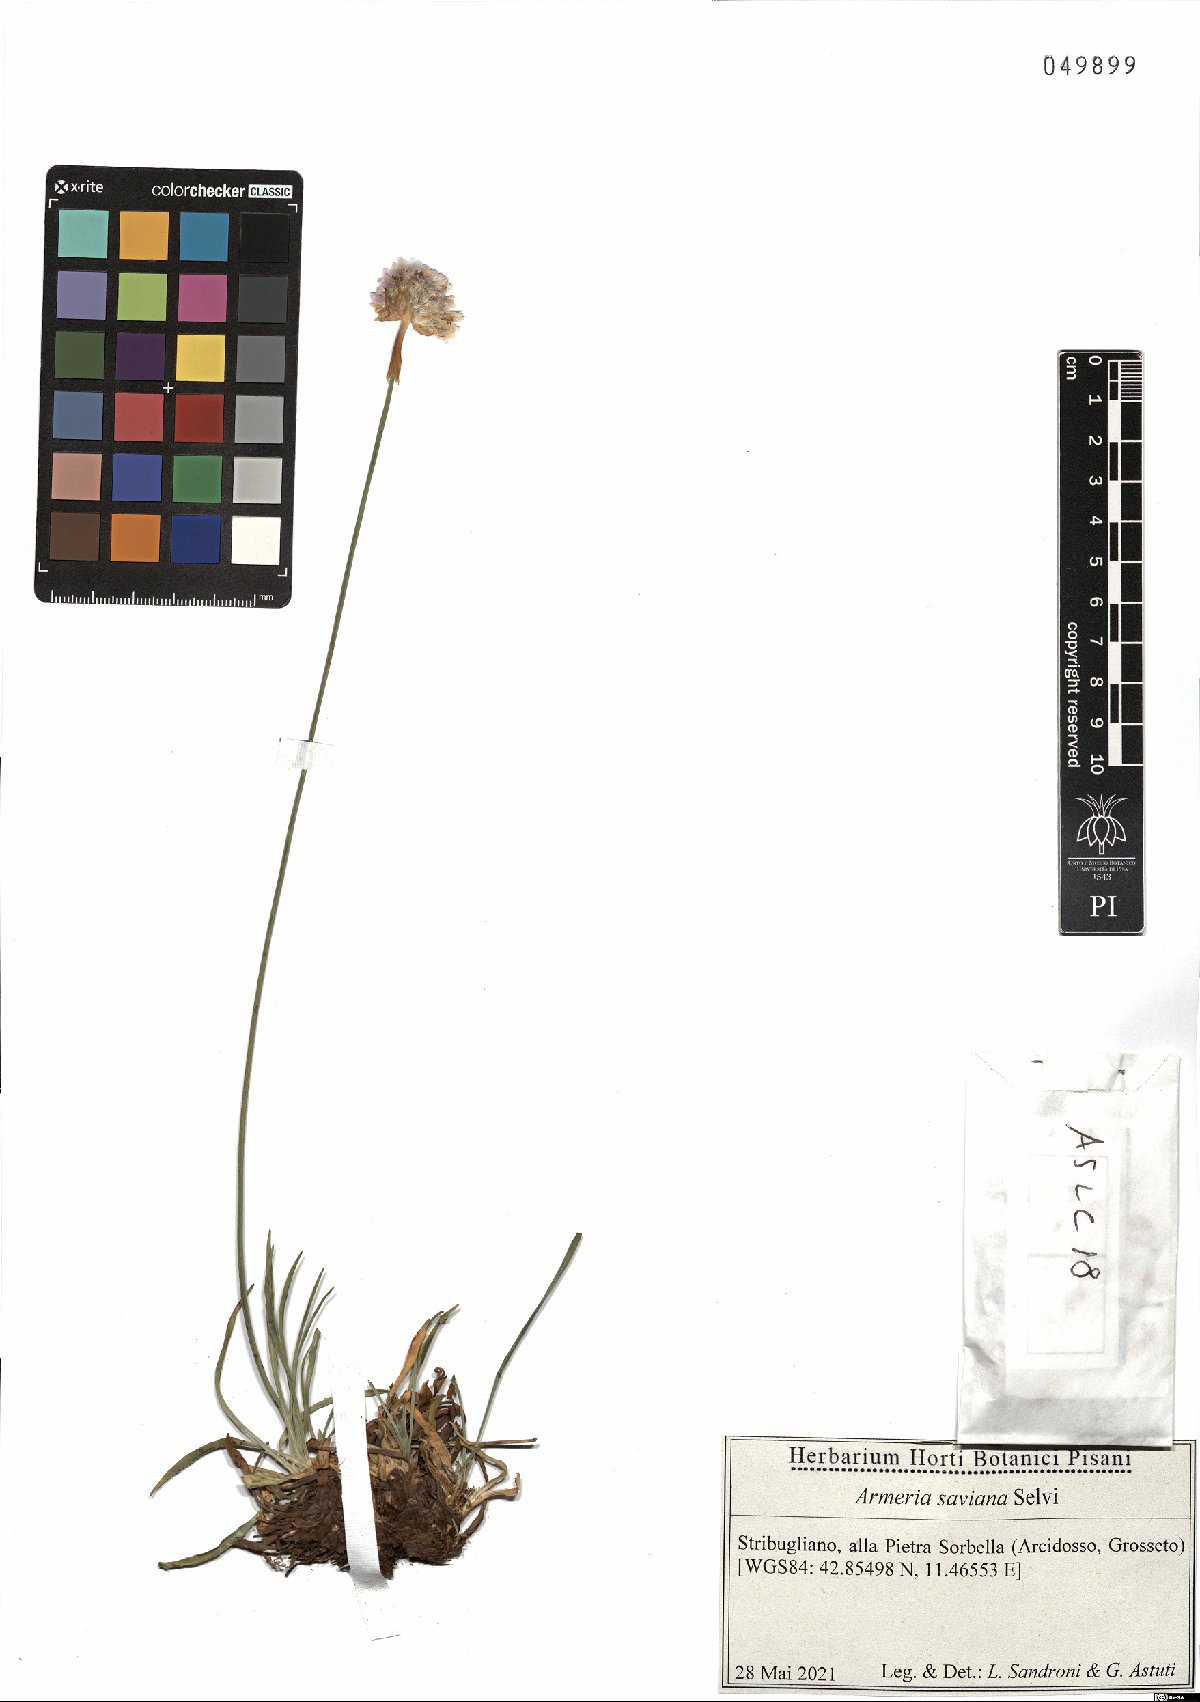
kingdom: Plantae
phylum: Tracheophyta
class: Magnoliopsida
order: Caryophyllales
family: Plumbaginaceae
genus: Armeria
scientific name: Armeria saviana
